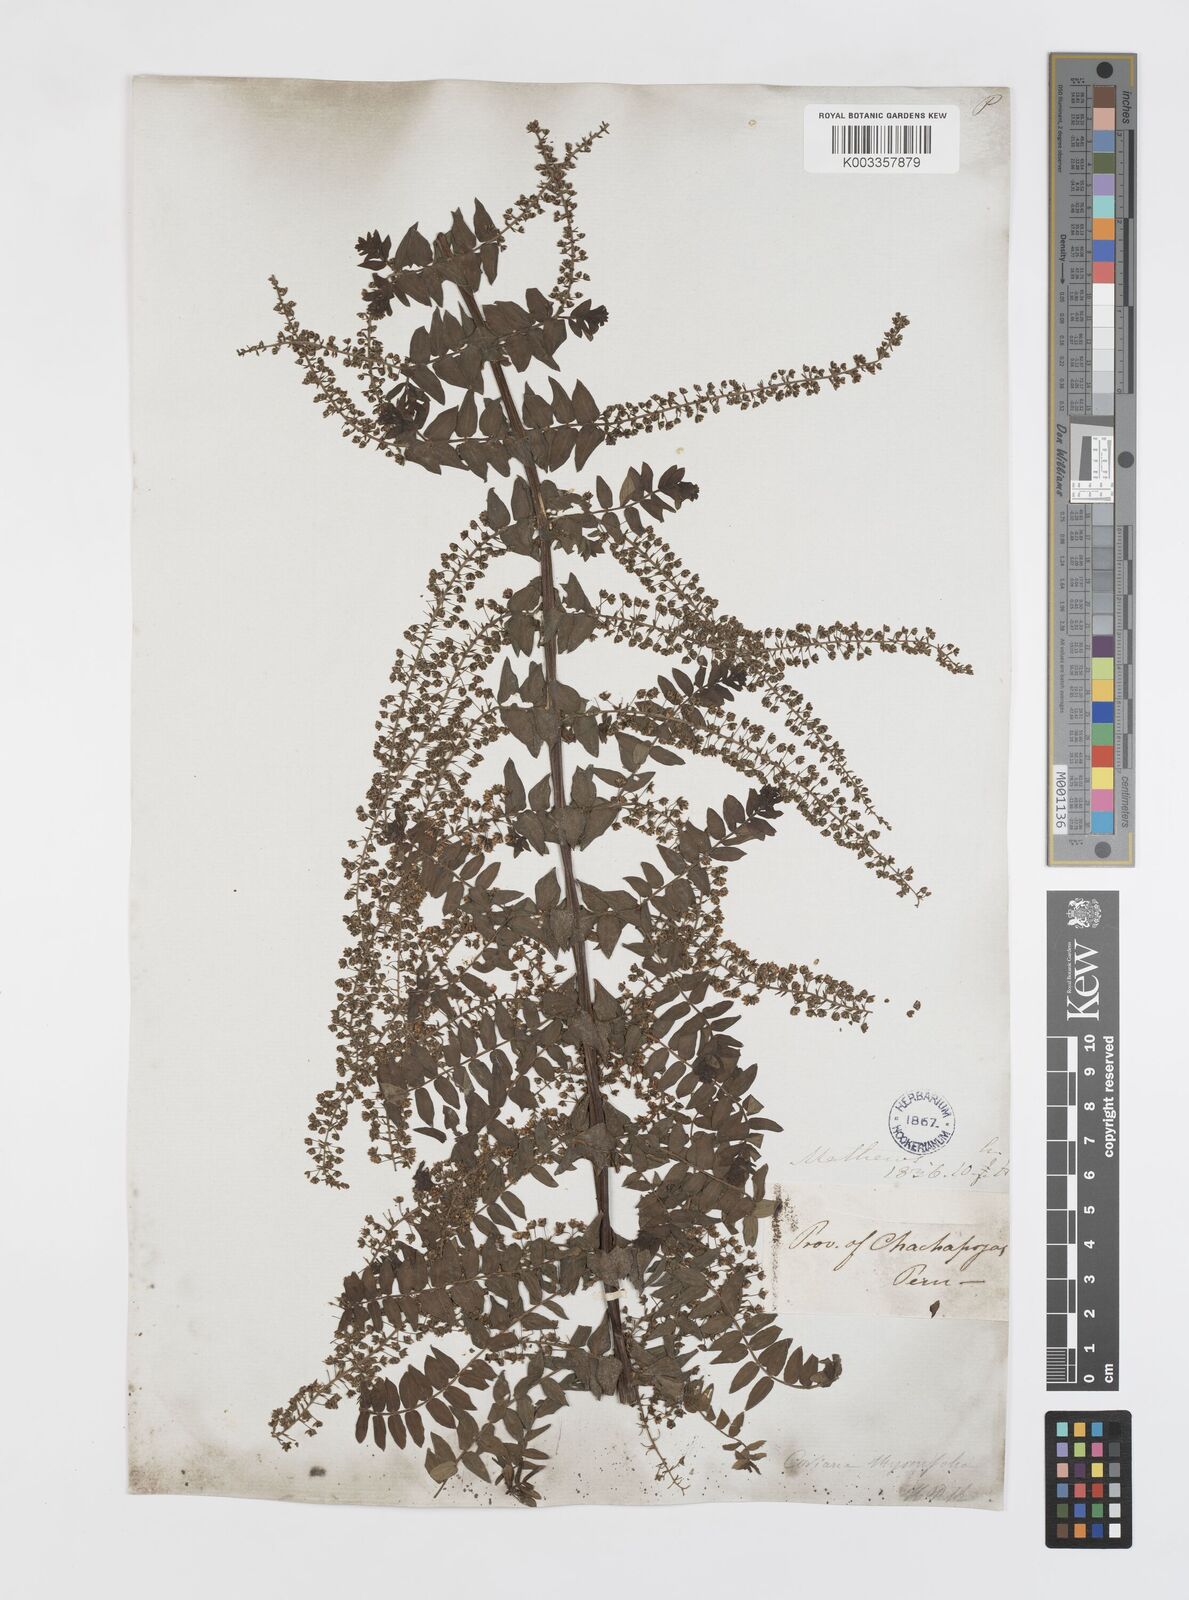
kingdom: Plantae
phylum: Tracheophyta
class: Magnoliopsida
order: Cucurbitales
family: Coriariaceae
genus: Coriaria
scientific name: Coriaria microphylla
